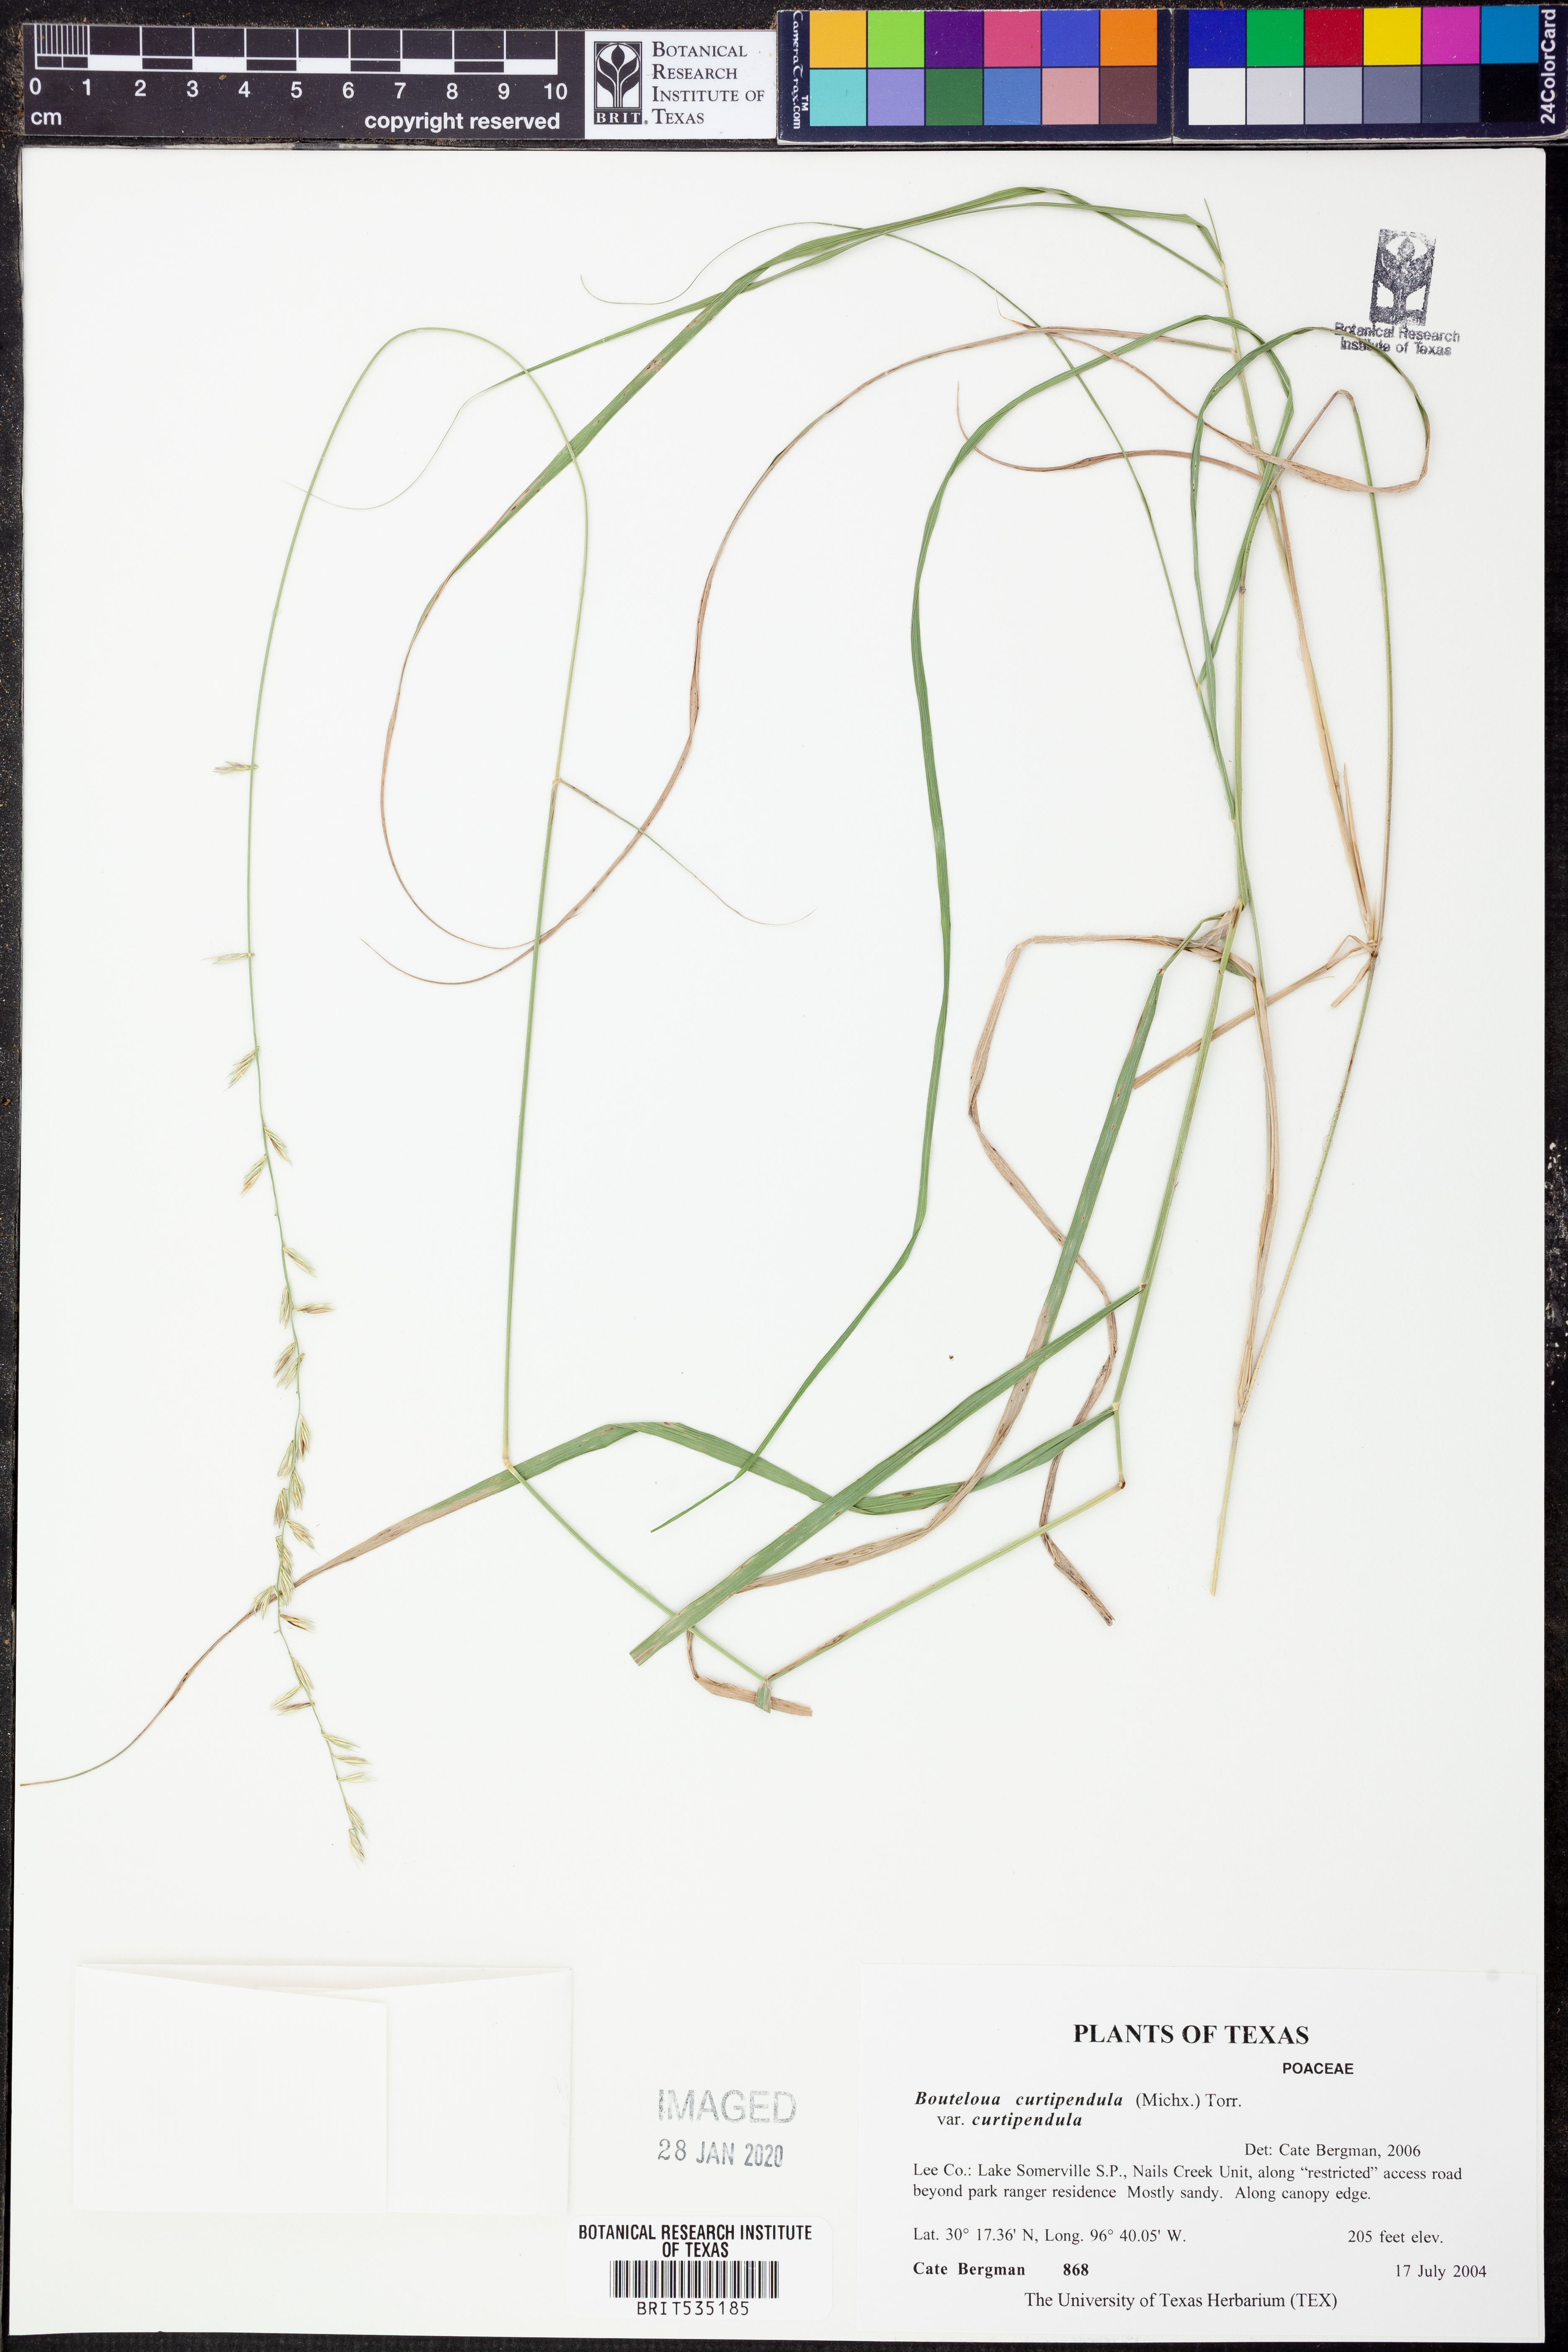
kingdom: Plantae
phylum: Tracheophyta
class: Liliopsida
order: Poales
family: Poaceae
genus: Bouteloua
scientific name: Bouteloua curtipendula
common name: Side-oats grama
